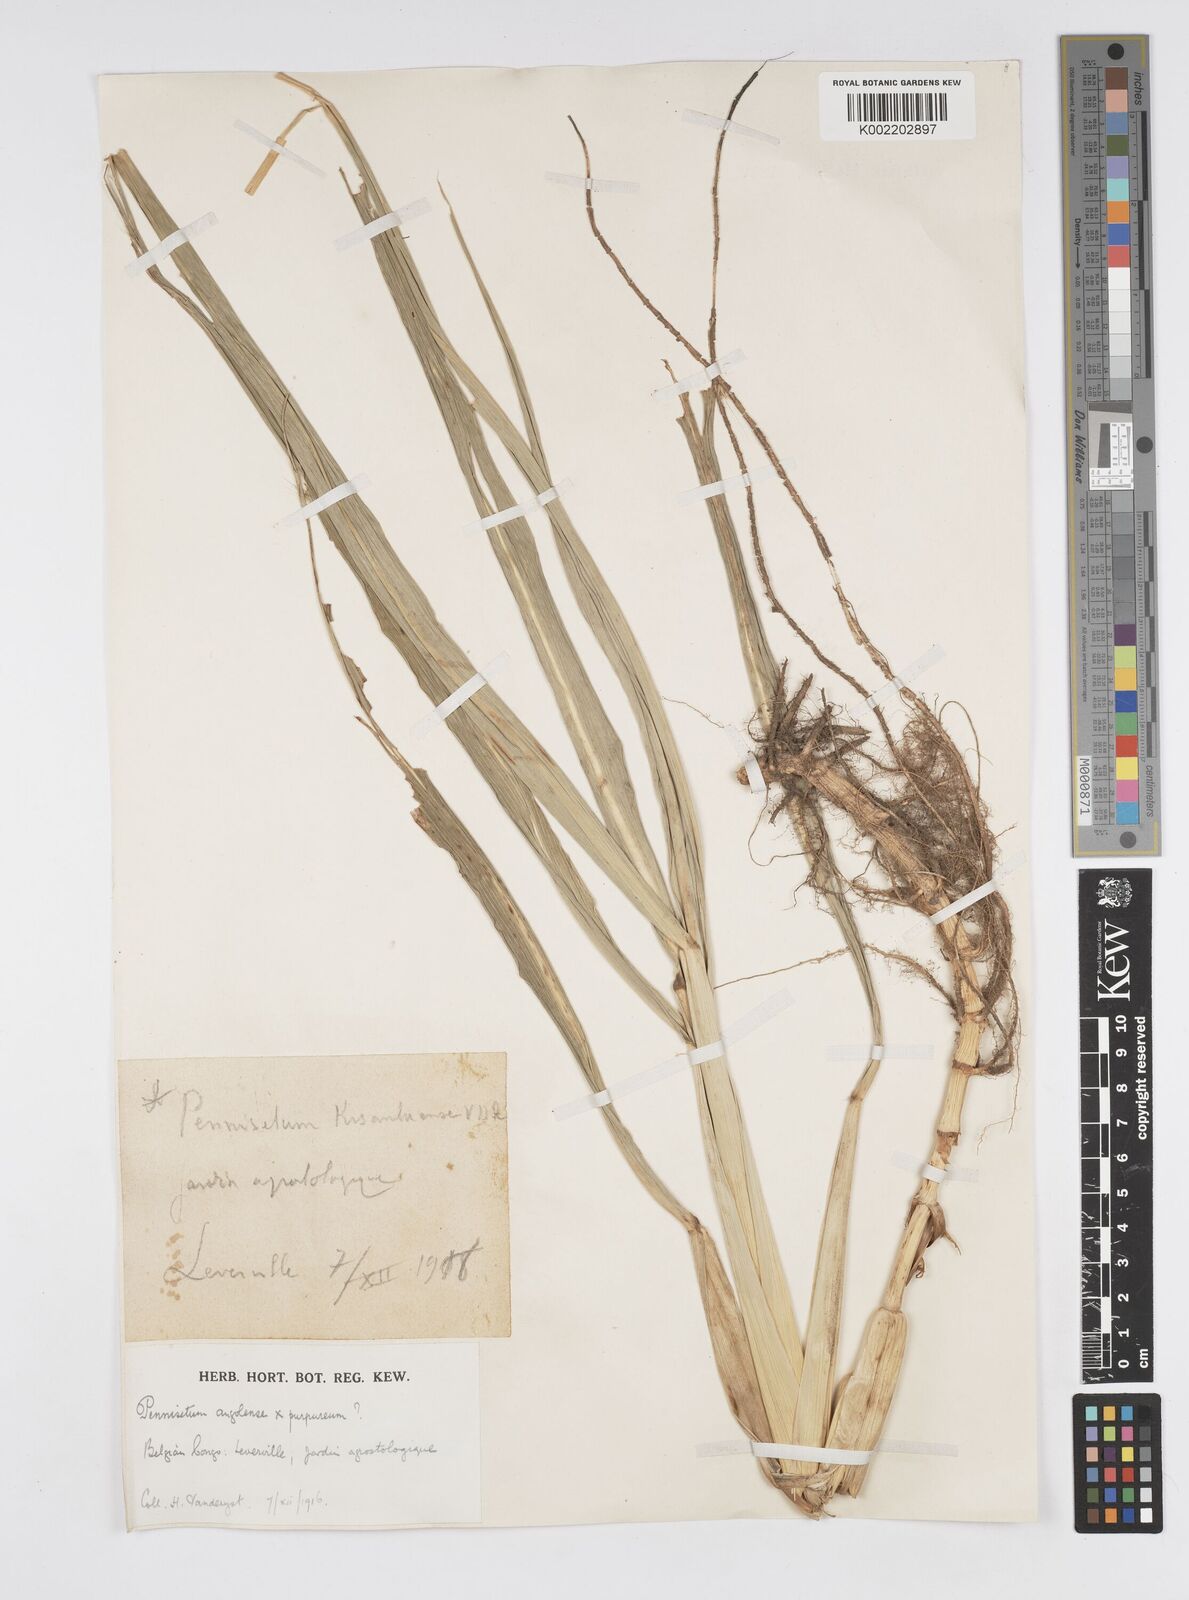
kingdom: Plantae
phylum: Tracheophyta
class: Liliopsida
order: Poales
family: Poaceae
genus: Cenchrus
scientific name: Cenchrus caudatus
